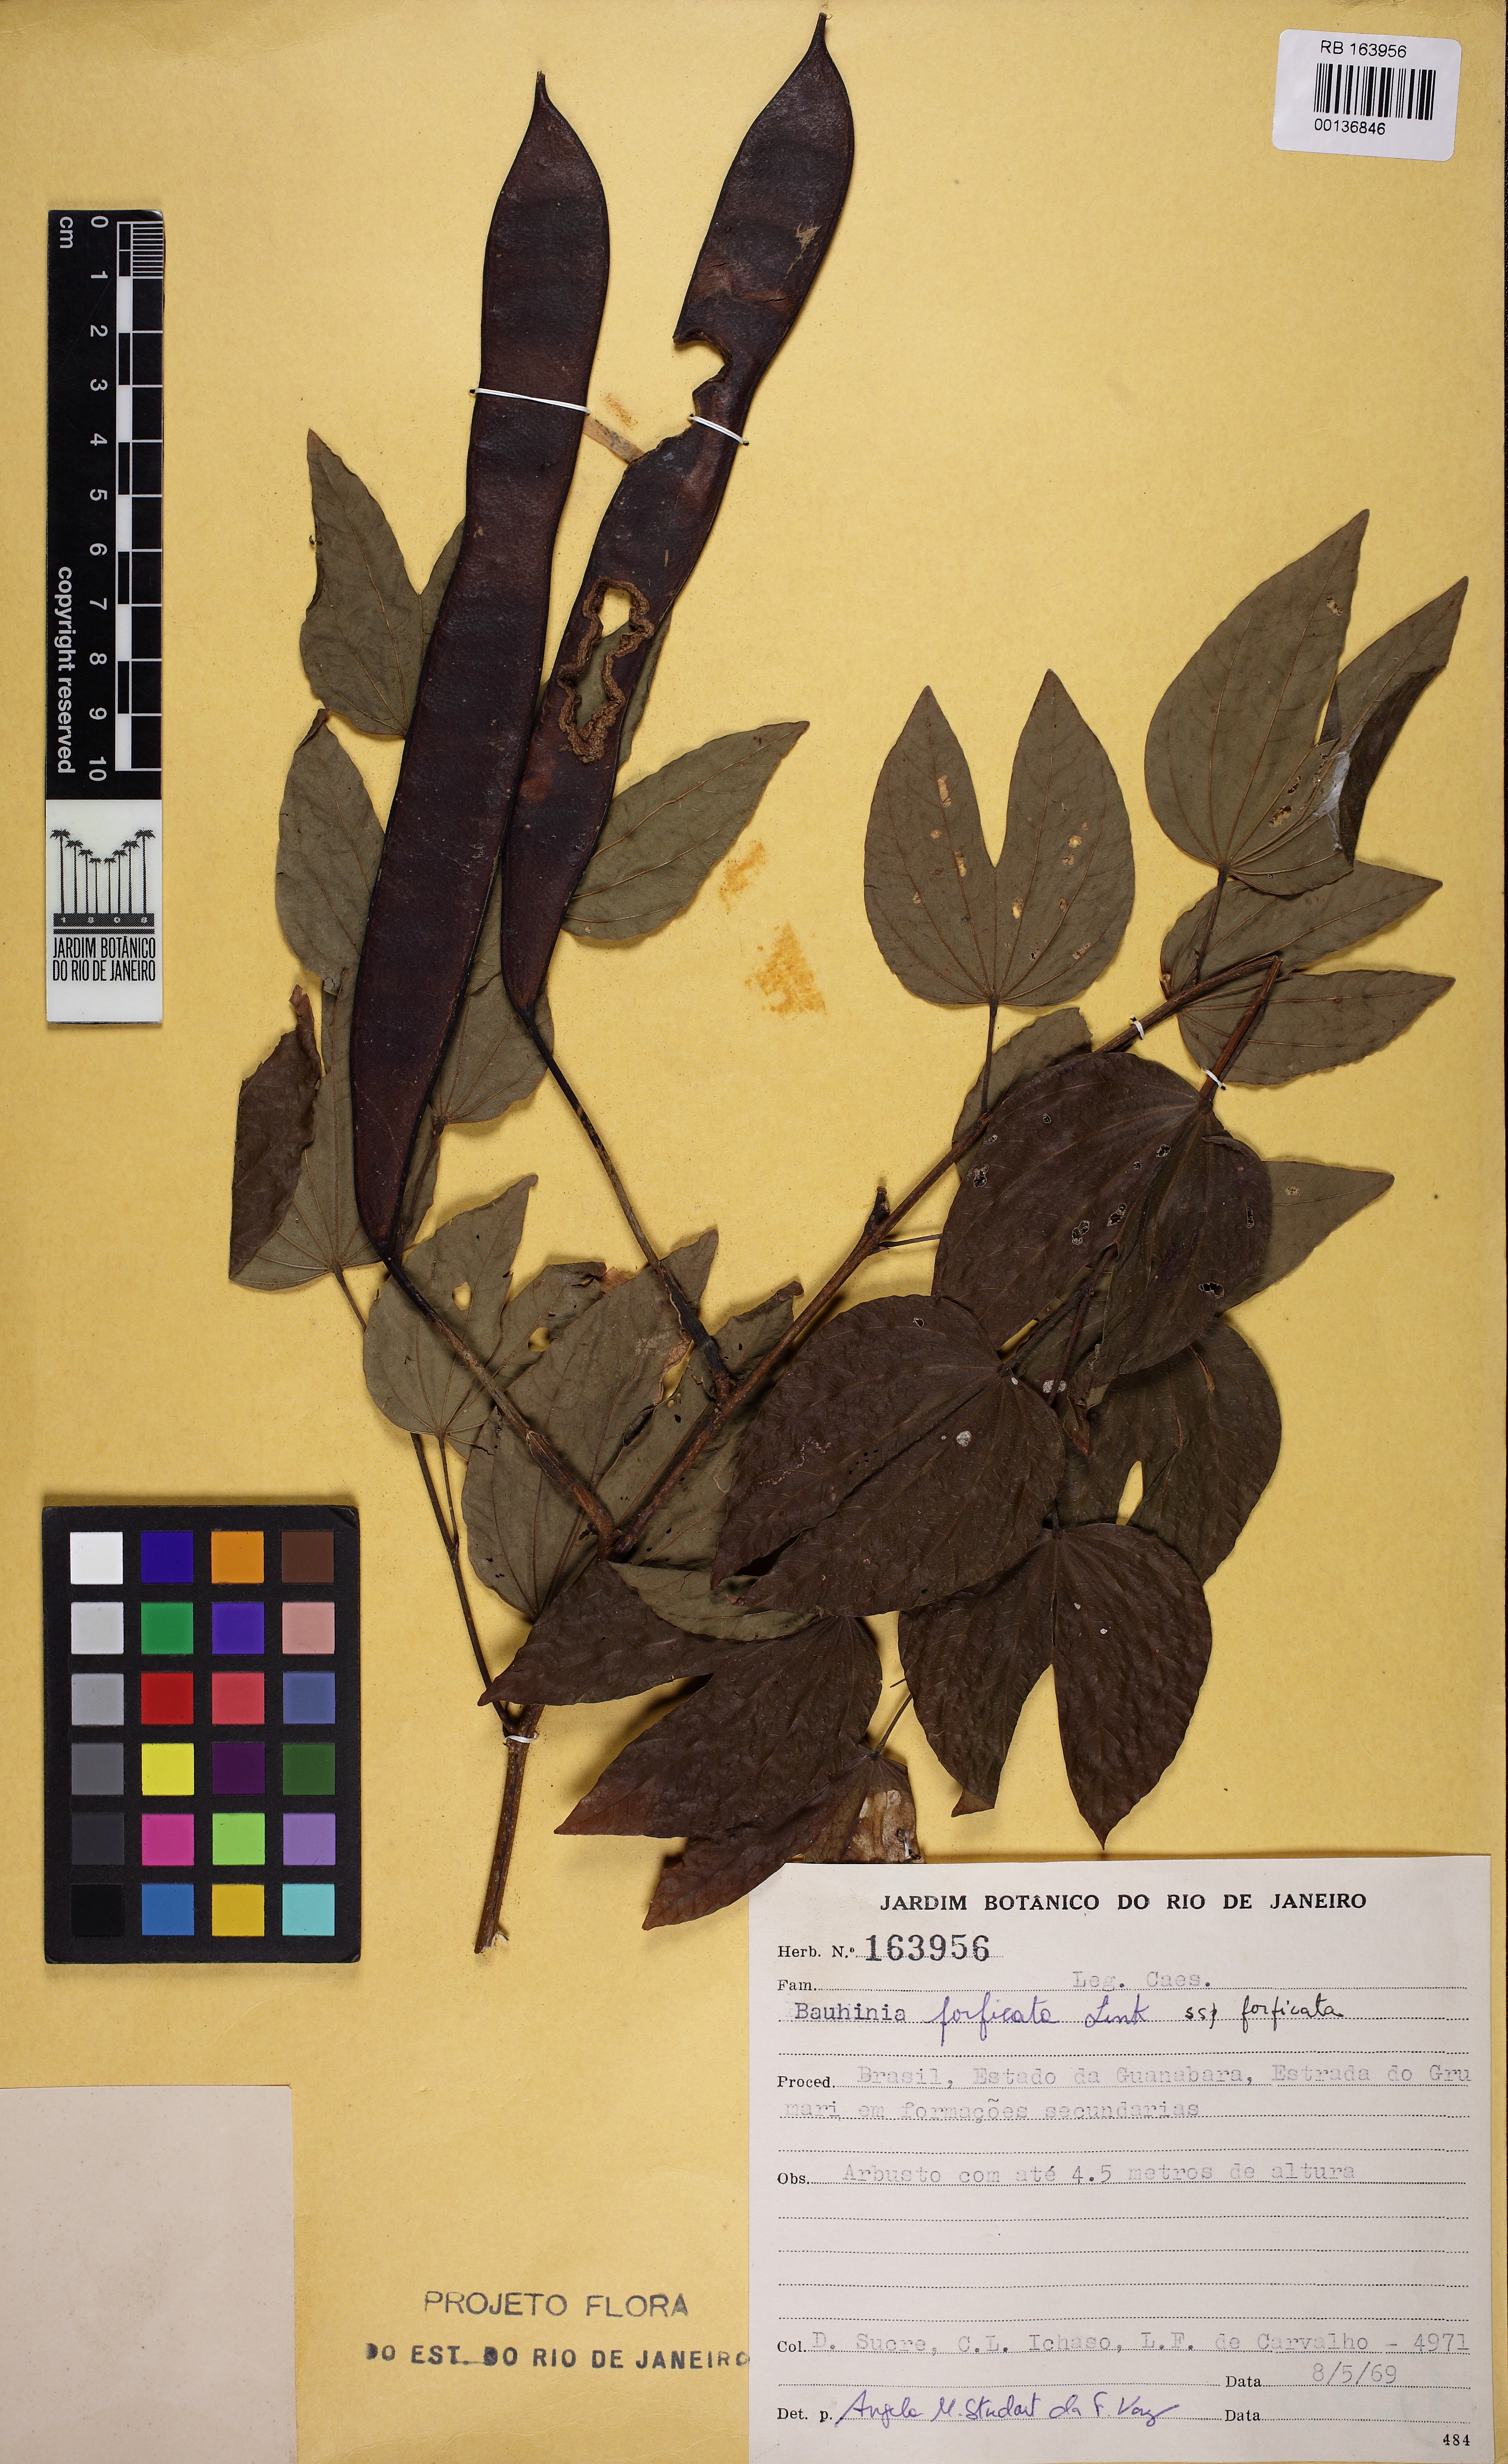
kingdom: Plantae
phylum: Tracheophyta
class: Magnoliopsida
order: Fabales
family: Fabaceae
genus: Bauhinia
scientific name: Bauhinia forficata
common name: Orchid tree
